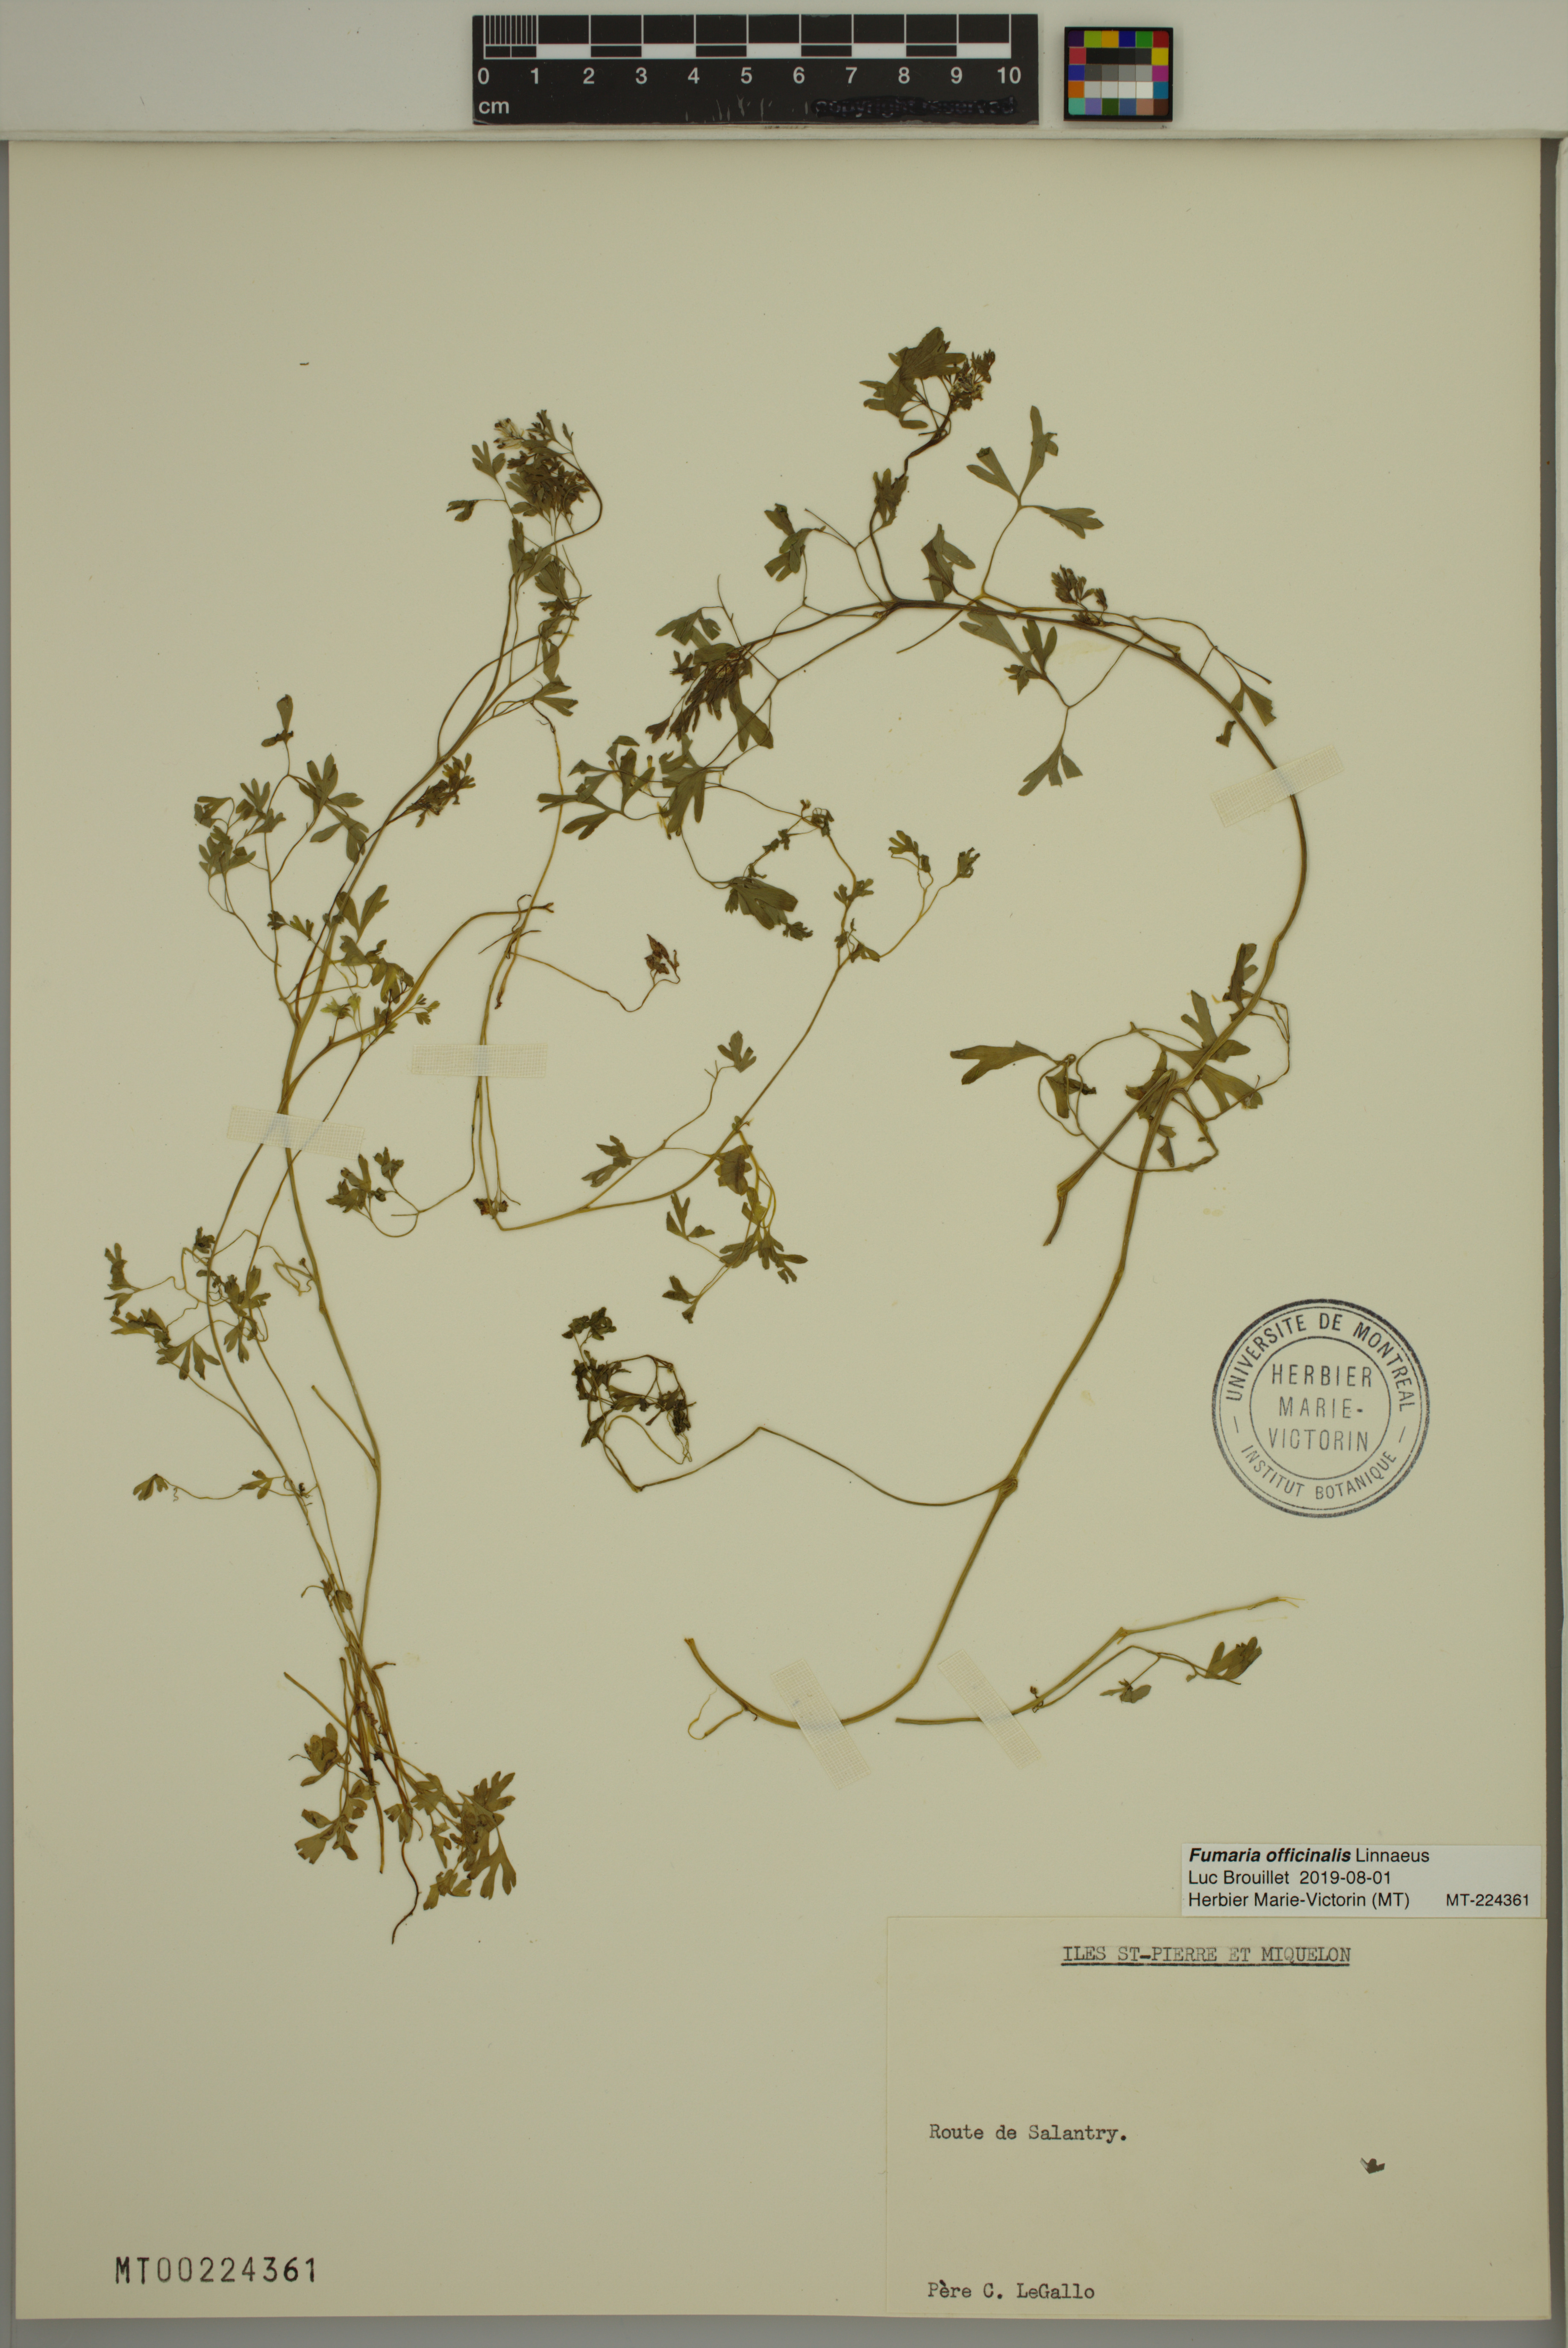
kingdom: Plantae
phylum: Tracheophyta
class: Magnoliopsida
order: Ranunculales
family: Papaveraceae
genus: Fumaria
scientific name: Fumaria officinalis
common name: Common fumitory
